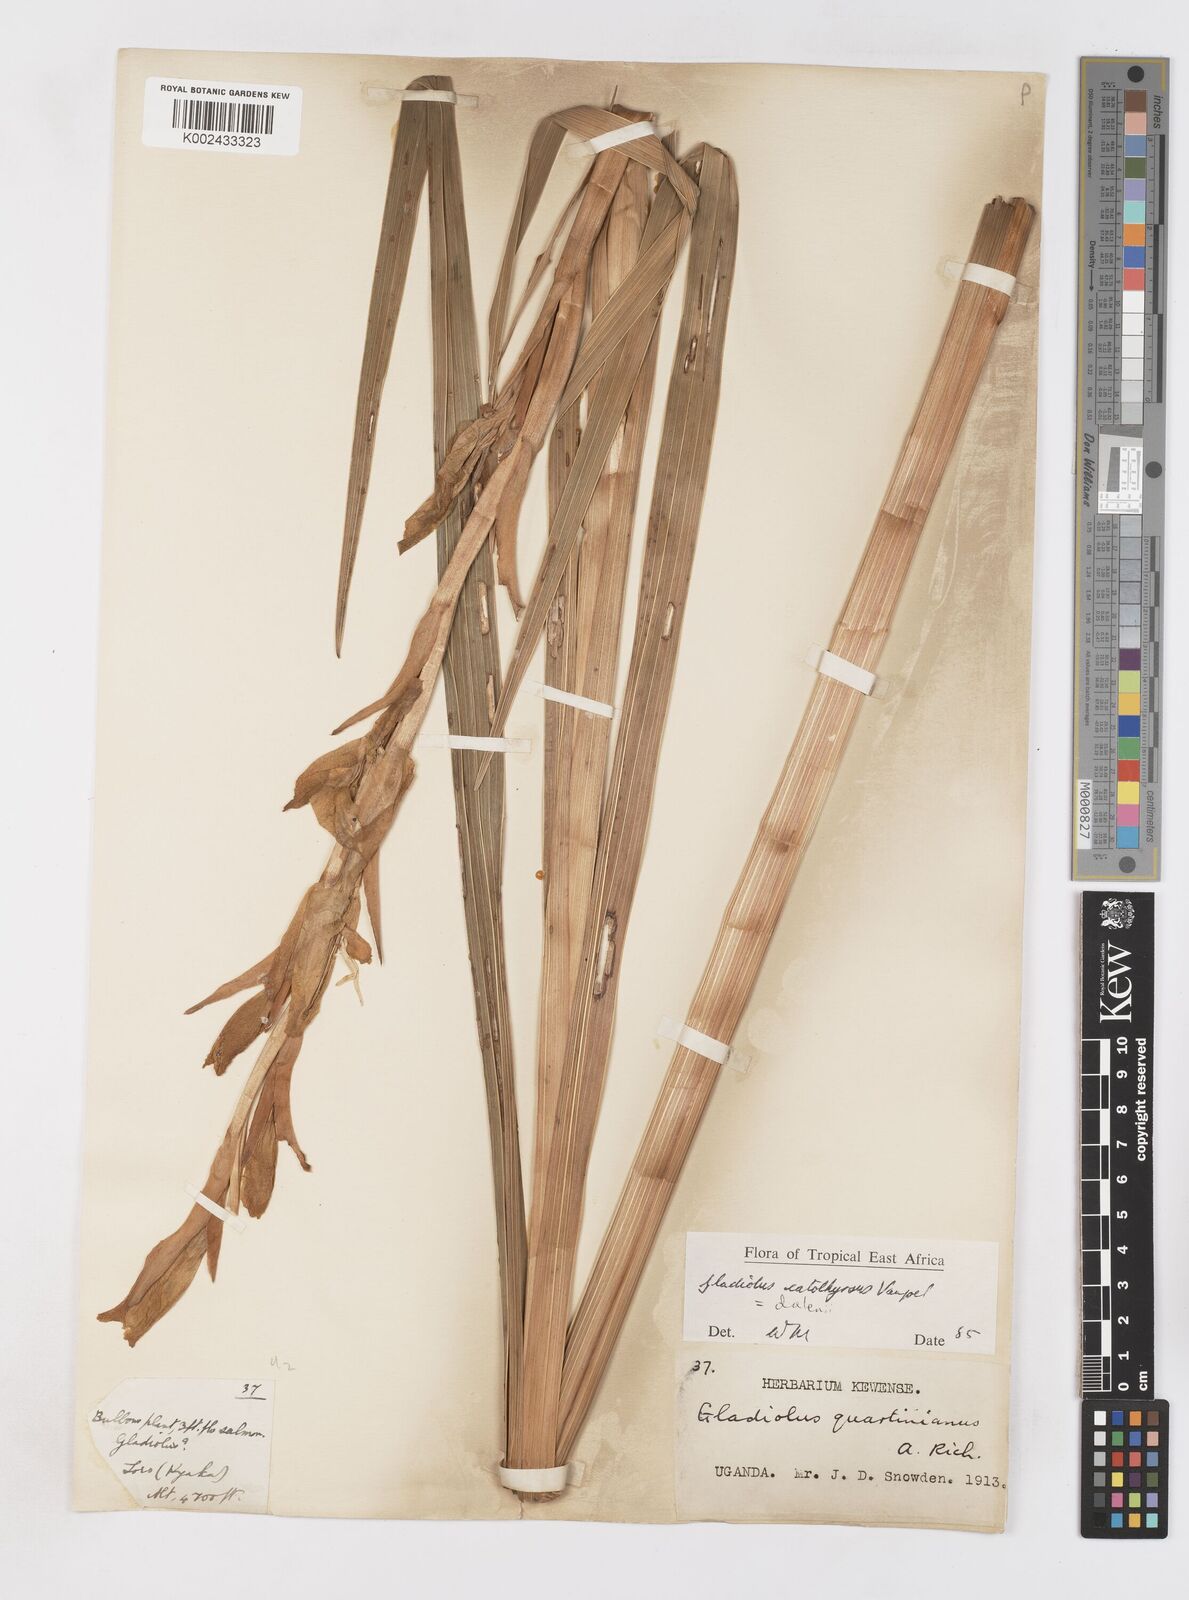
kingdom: Plantae
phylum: Tracheophyta
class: Liliopsida
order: Asparagales
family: Iridaceae
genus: Gladiolus
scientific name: Gladiolus dalenii
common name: Cornflag
